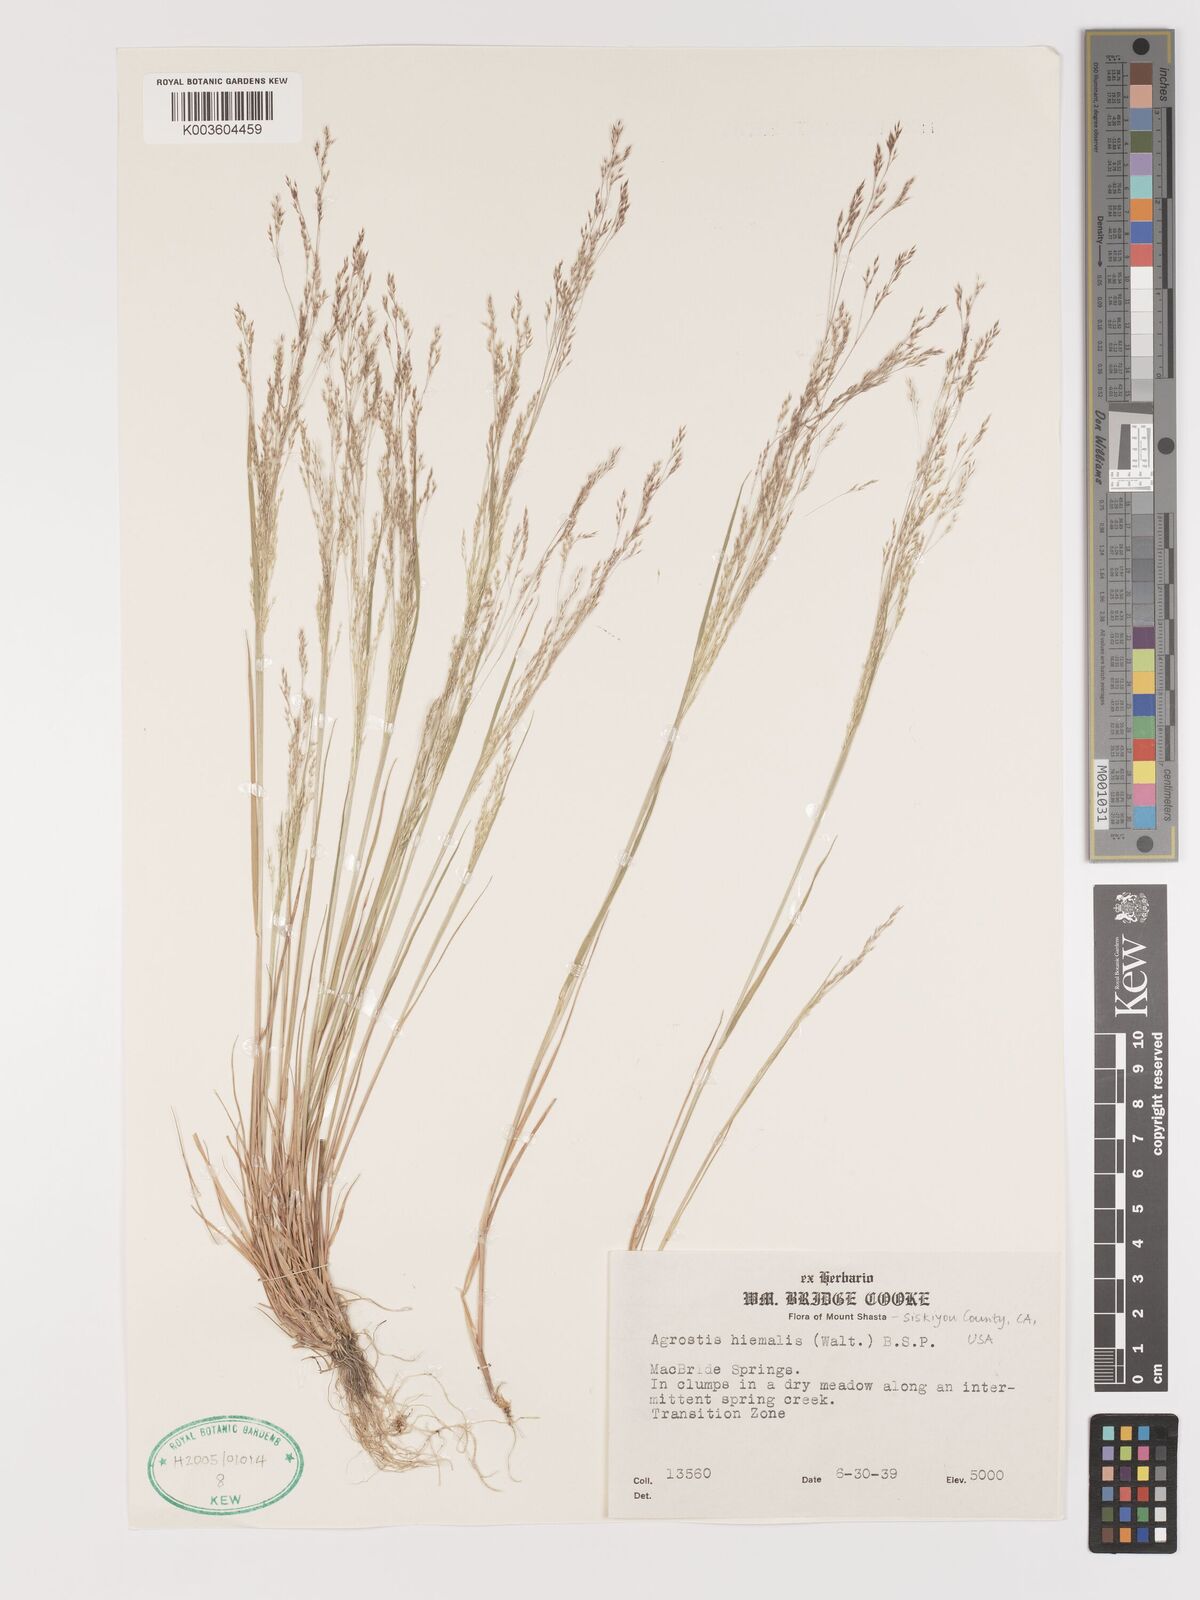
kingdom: Plantae
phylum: Tracheophyta
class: Liliopsida
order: Poales
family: Poaceae
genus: Agrostis
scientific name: Agrostis hyemalis
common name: Small bent
